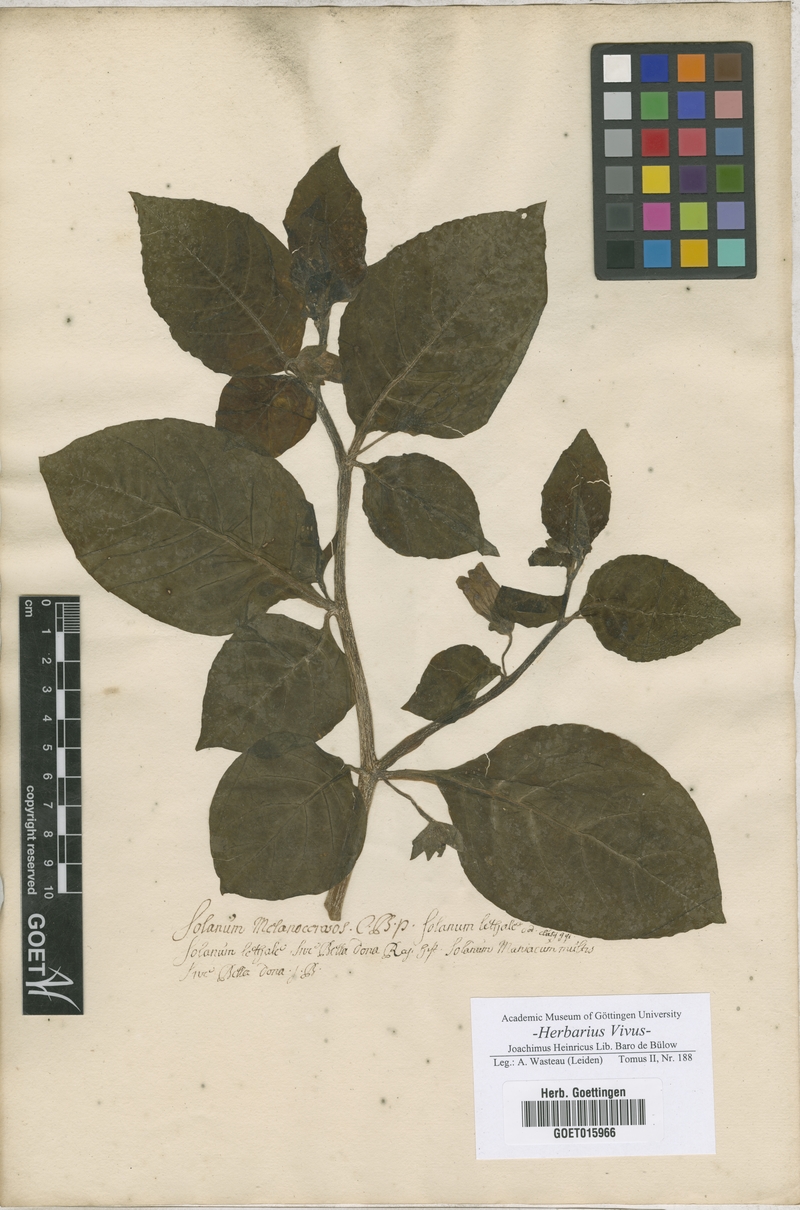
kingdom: Plantae
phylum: Tracheophyta
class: Magnoliopsida
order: Solanales
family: Solanaceae
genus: Solanum
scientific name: Solanum
